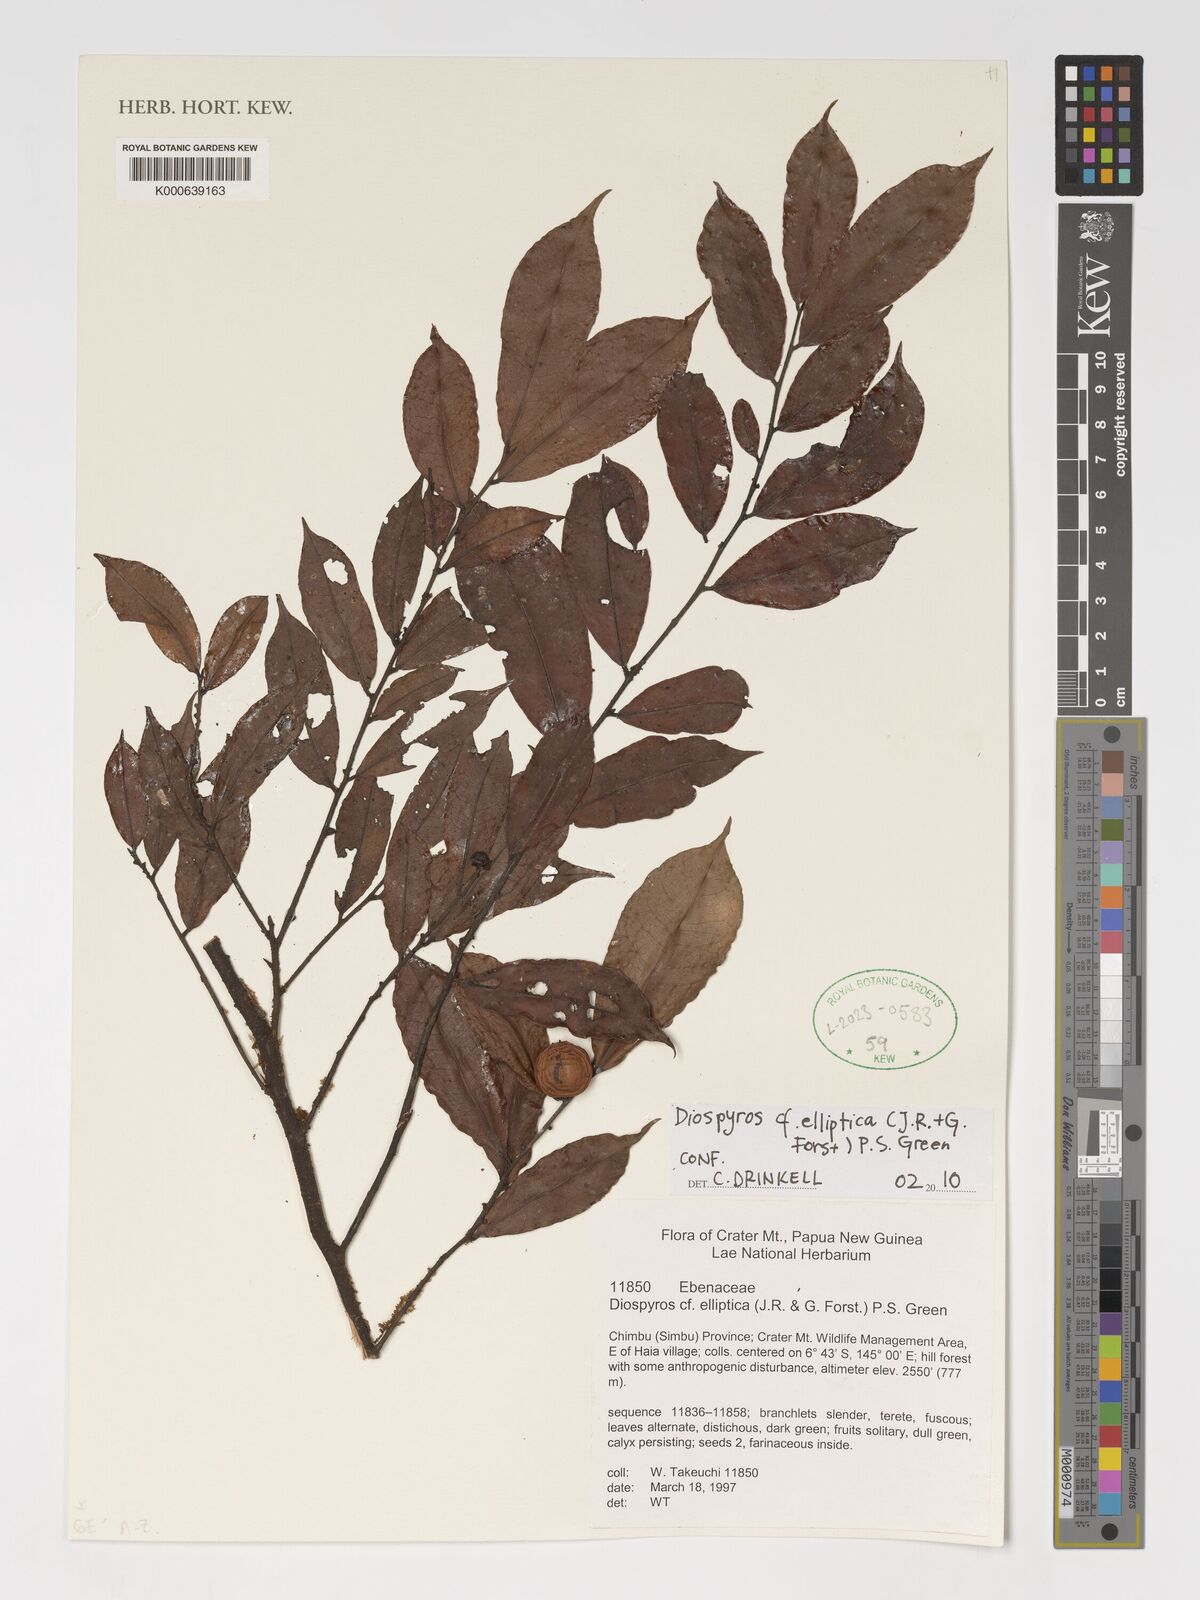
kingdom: Plantae
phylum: Tracheophyta
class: Magnoliopsida
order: Ericales
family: Ebenaceae
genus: Diospyros
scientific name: Diospyros foliosa
